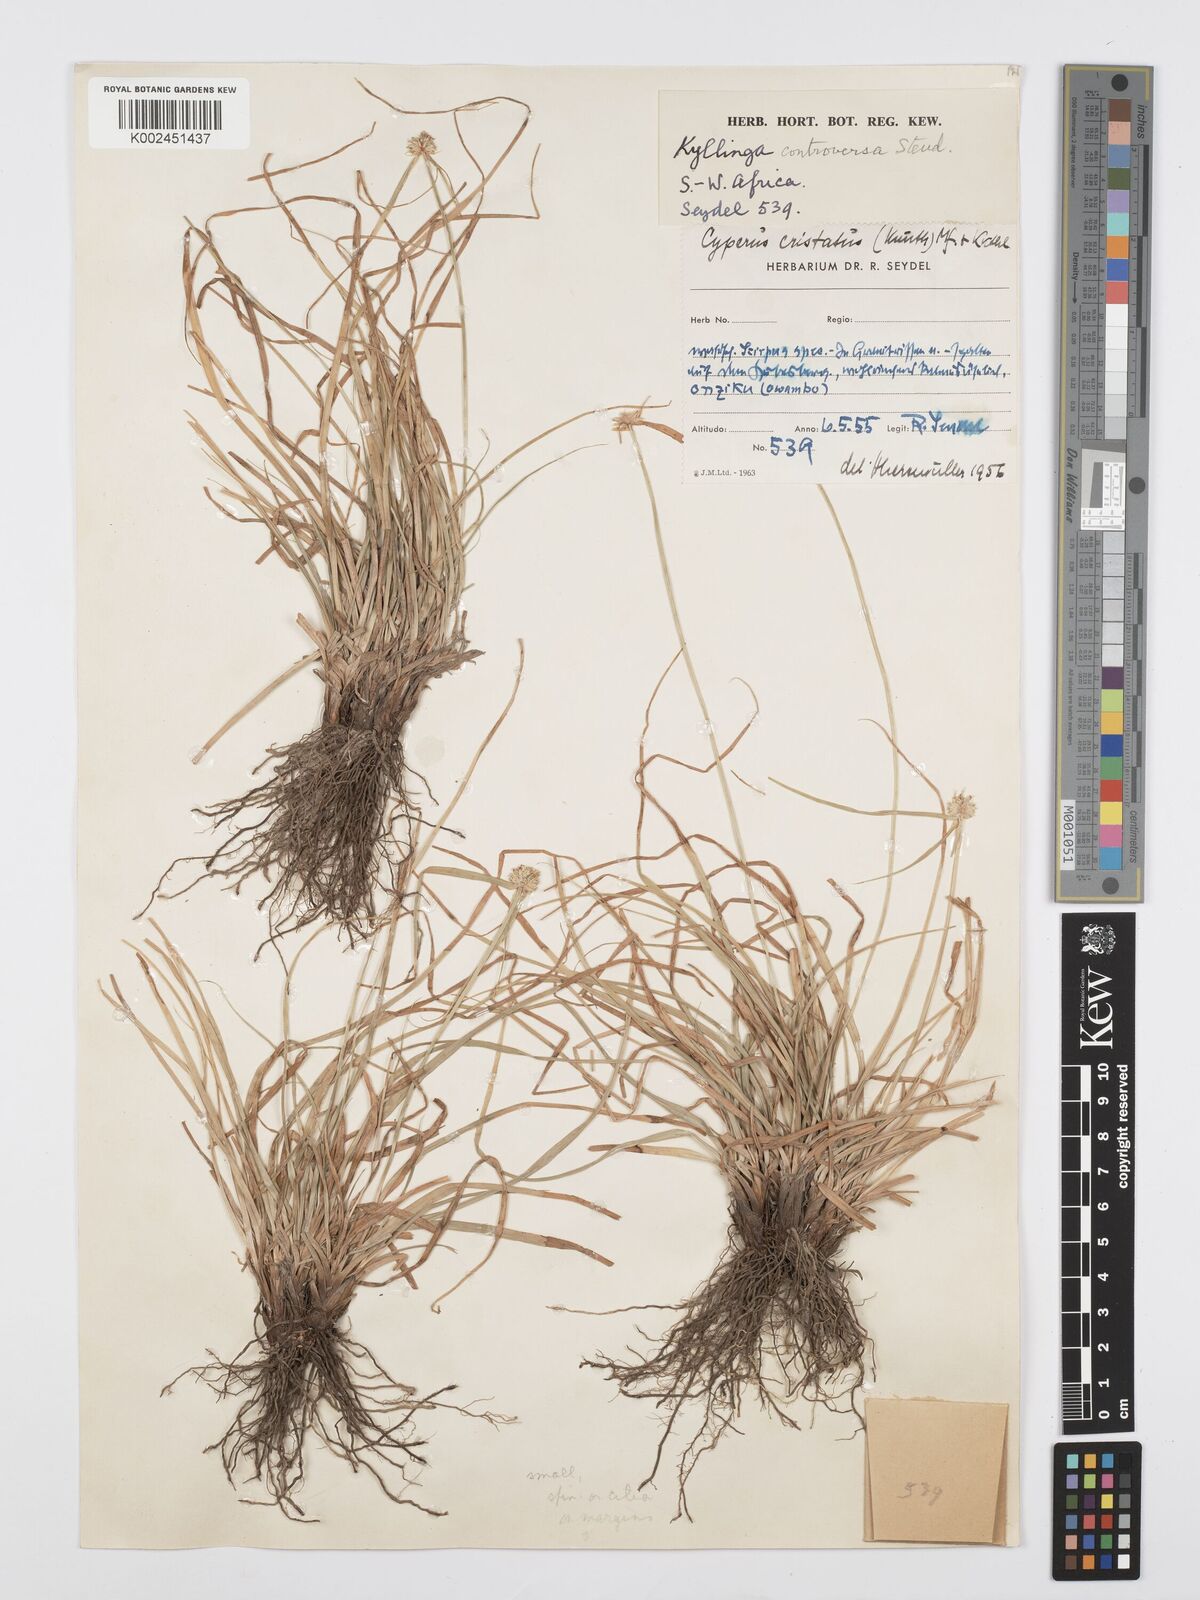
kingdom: Plantae
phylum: Tracheophyta
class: Liliopsida
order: Poales
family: Cyperaceae
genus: Cyperus
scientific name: Cyperus controversus
